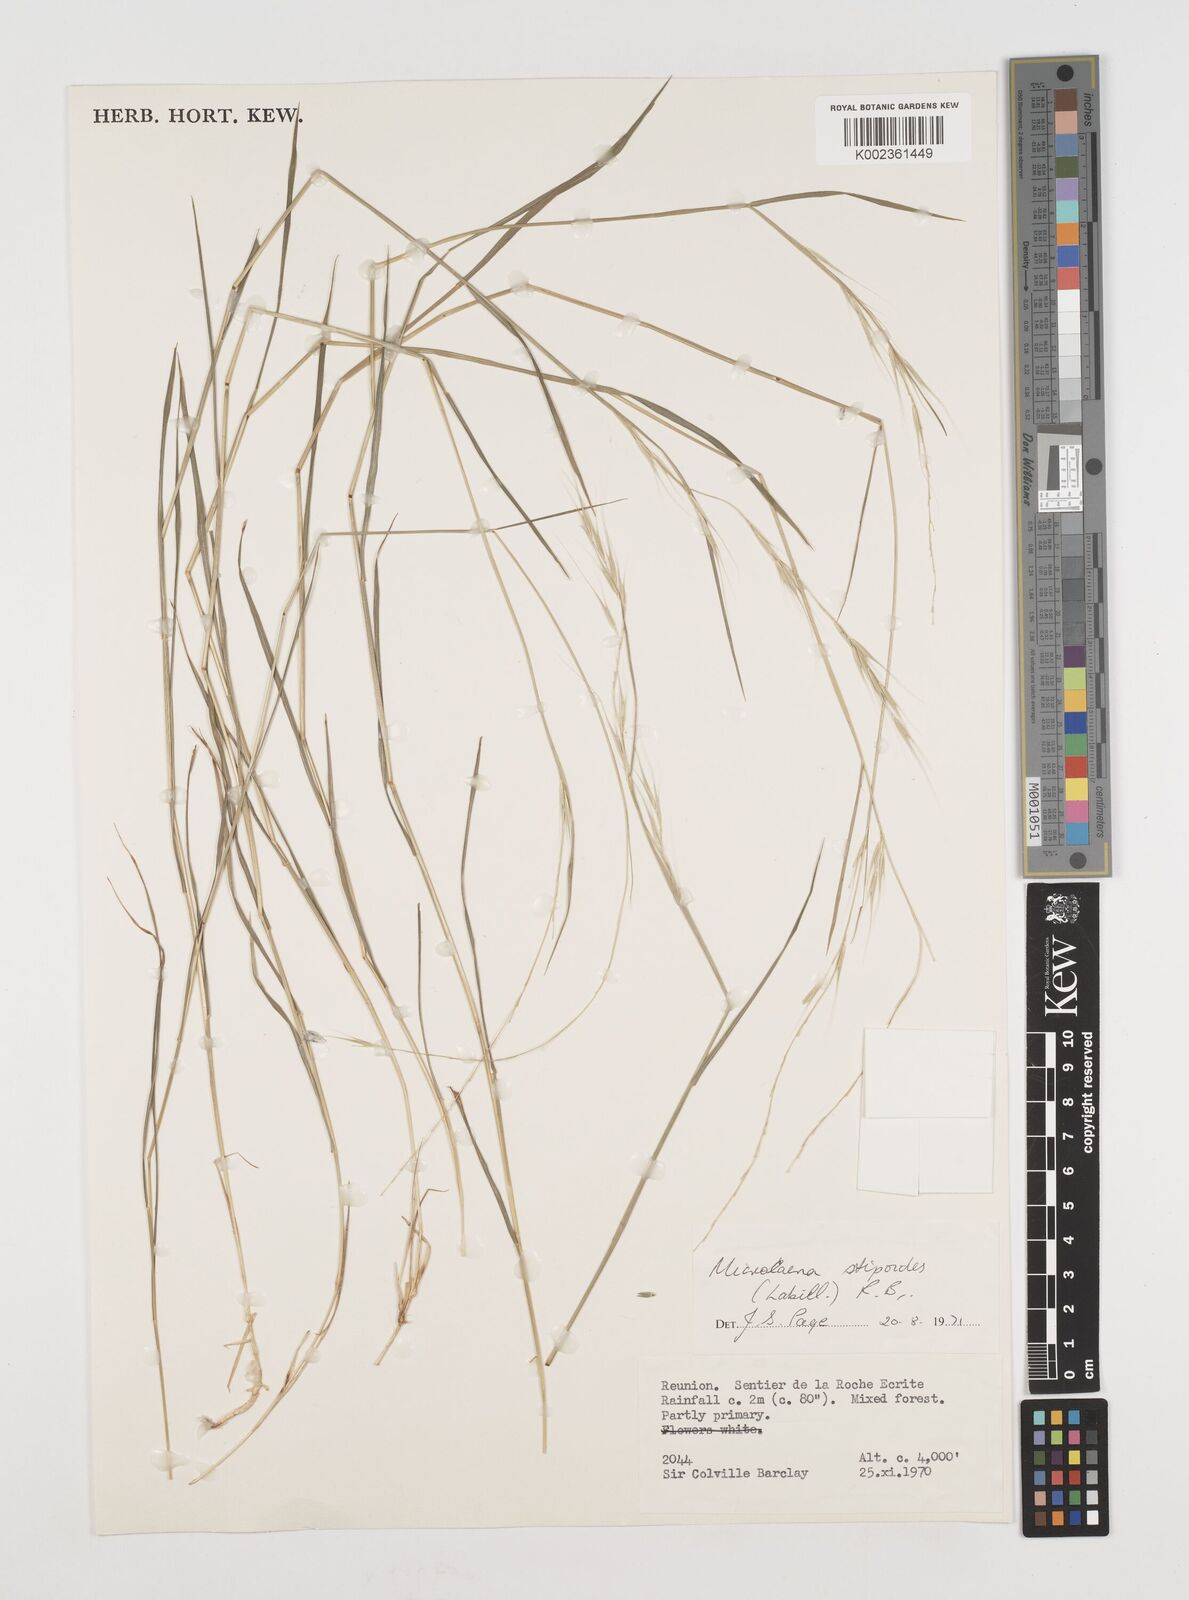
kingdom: Plantae
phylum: Tracheophyta
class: Liliopsida
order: Poales
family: Poaceae
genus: Microlaena
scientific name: Microlaena stipoides
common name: Meadow ricegrass
